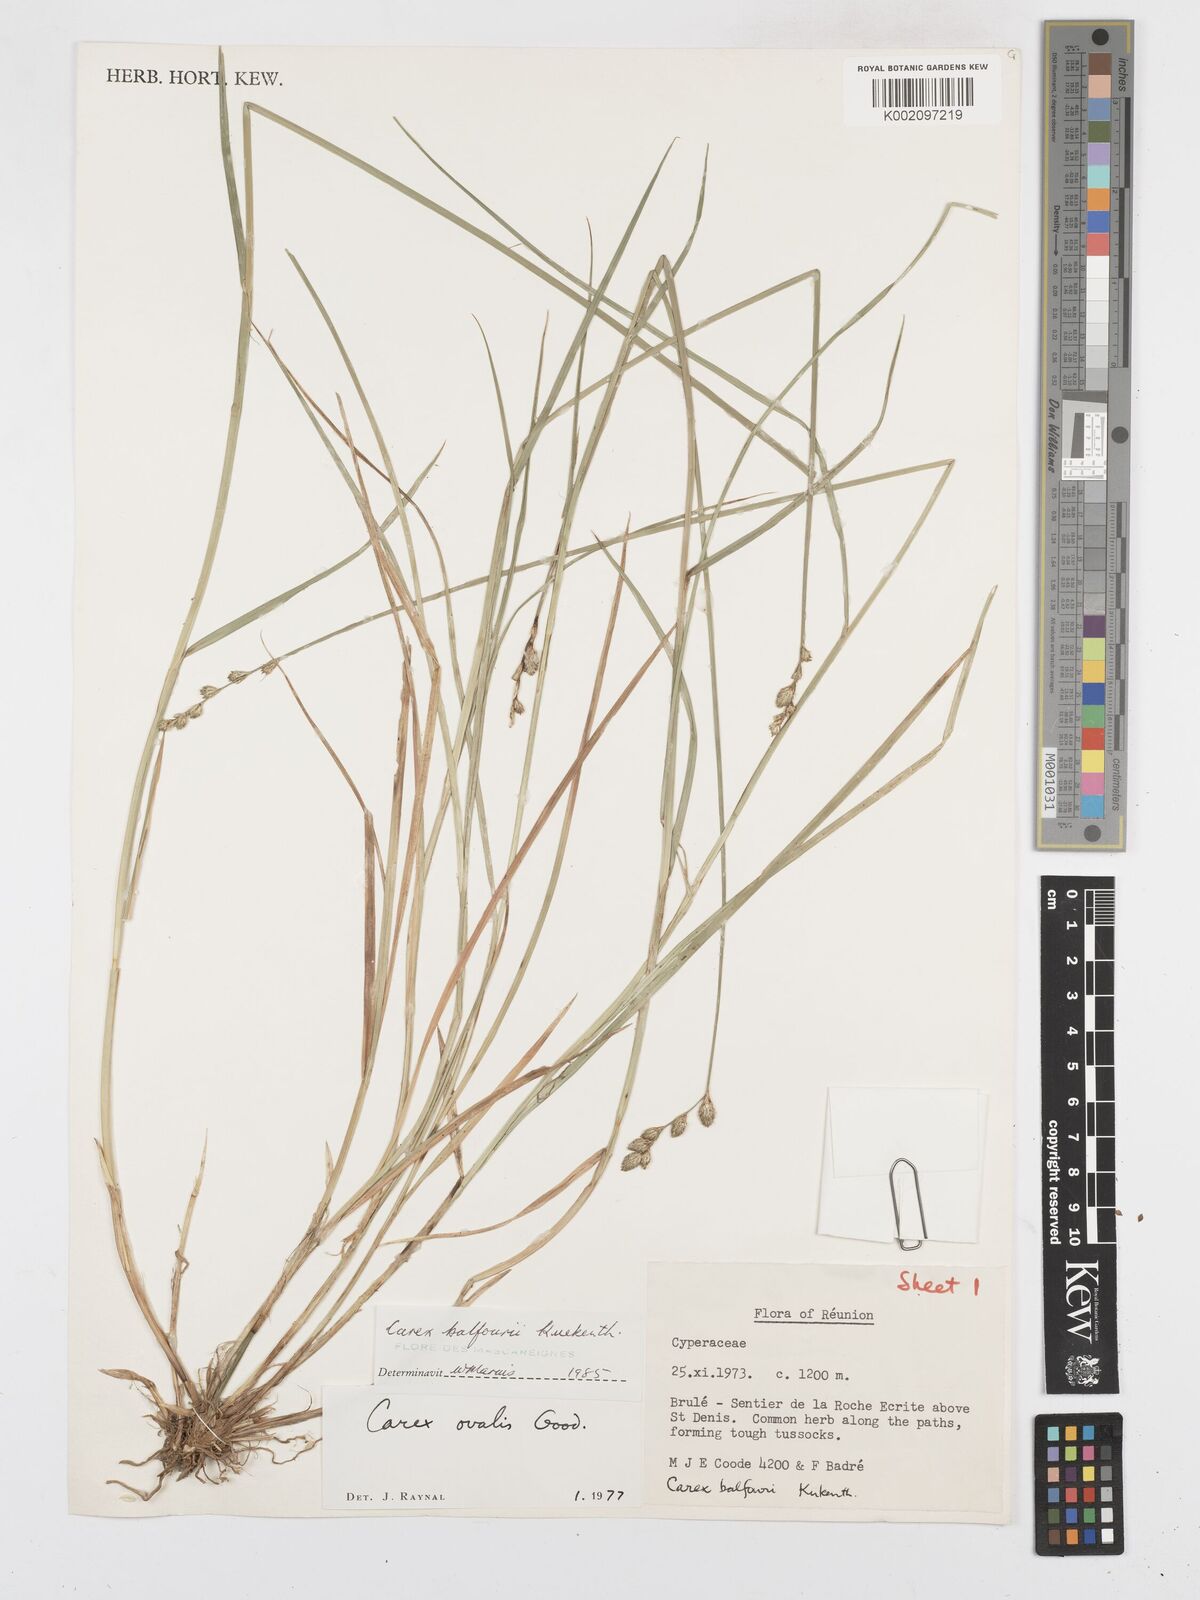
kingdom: Plantae
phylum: Tracheophyta
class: Liliopsida
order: Poales
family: Cyperaceae
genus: Carex
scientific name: Carex balfourii
